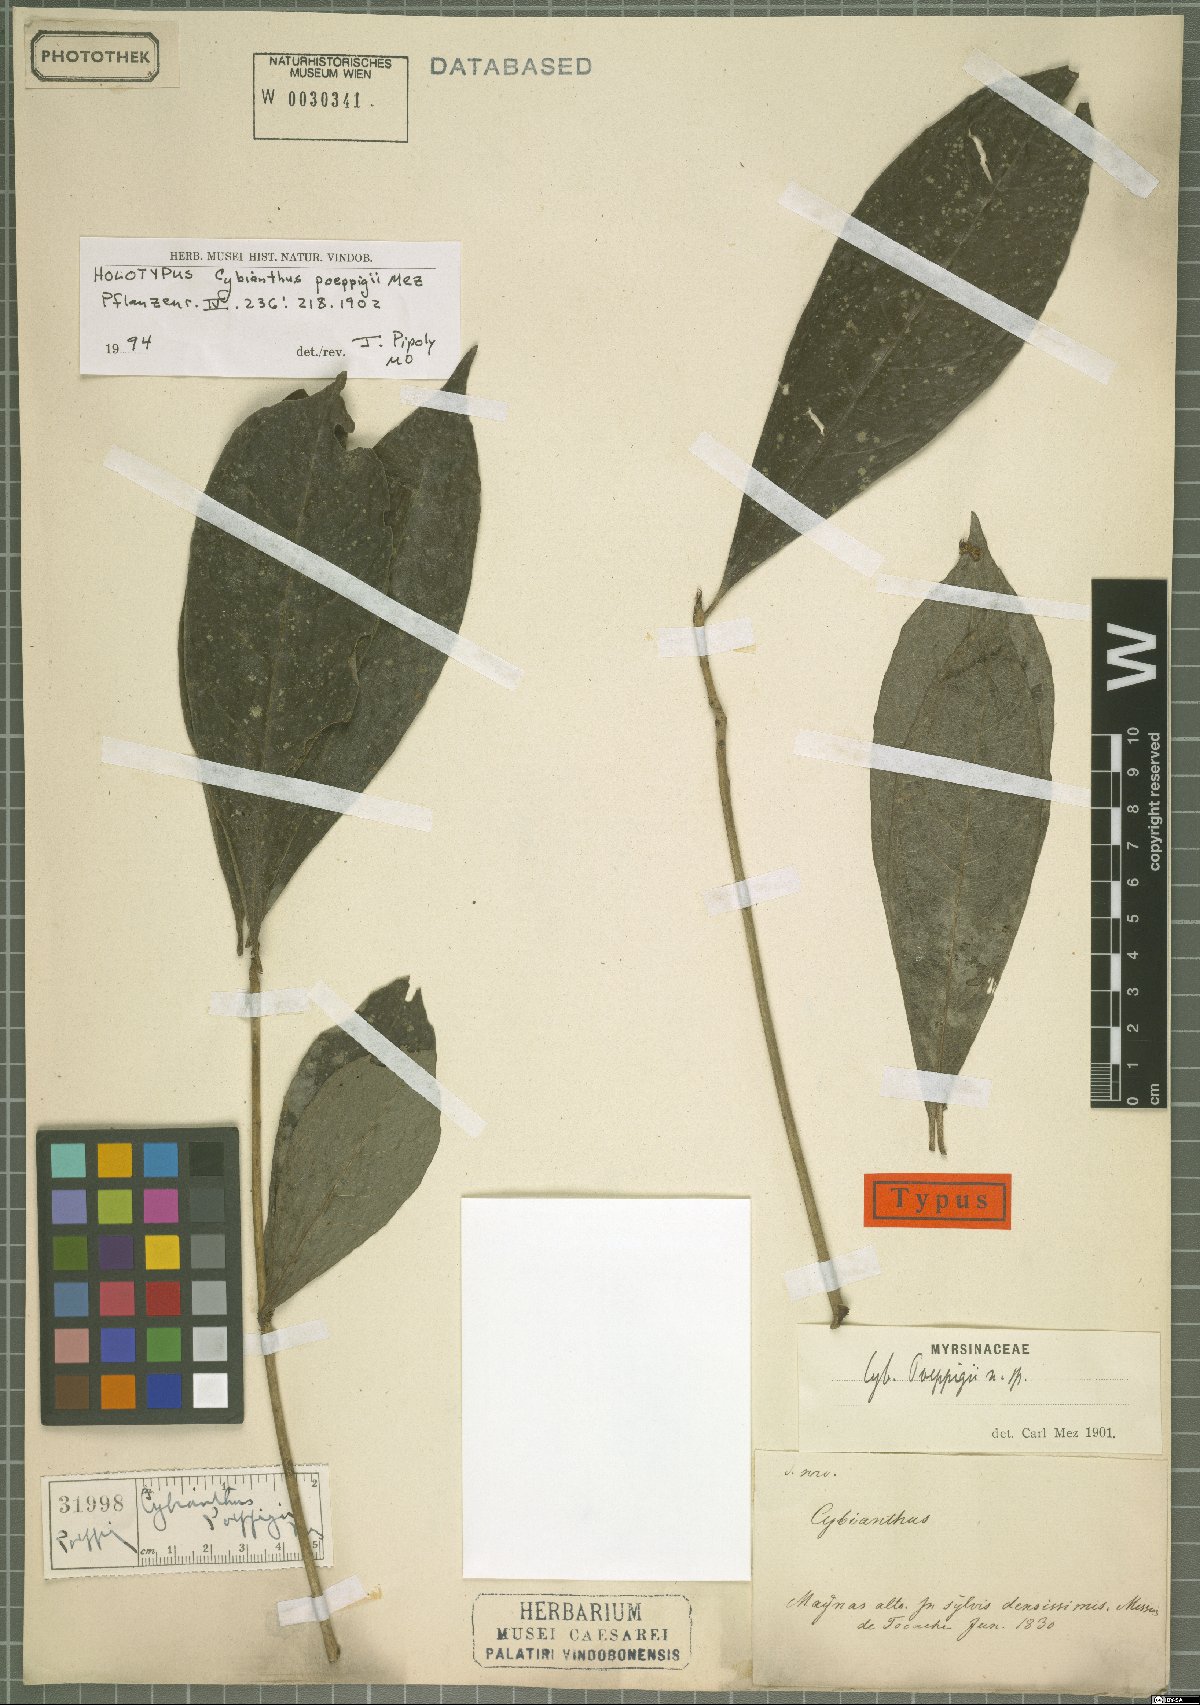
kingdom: Plantae
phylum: Tracheophyta
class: Magnoliopsida
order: Ericales
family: Primulaceae
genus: Cybianthus
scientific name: Cybianthus poeppigii
